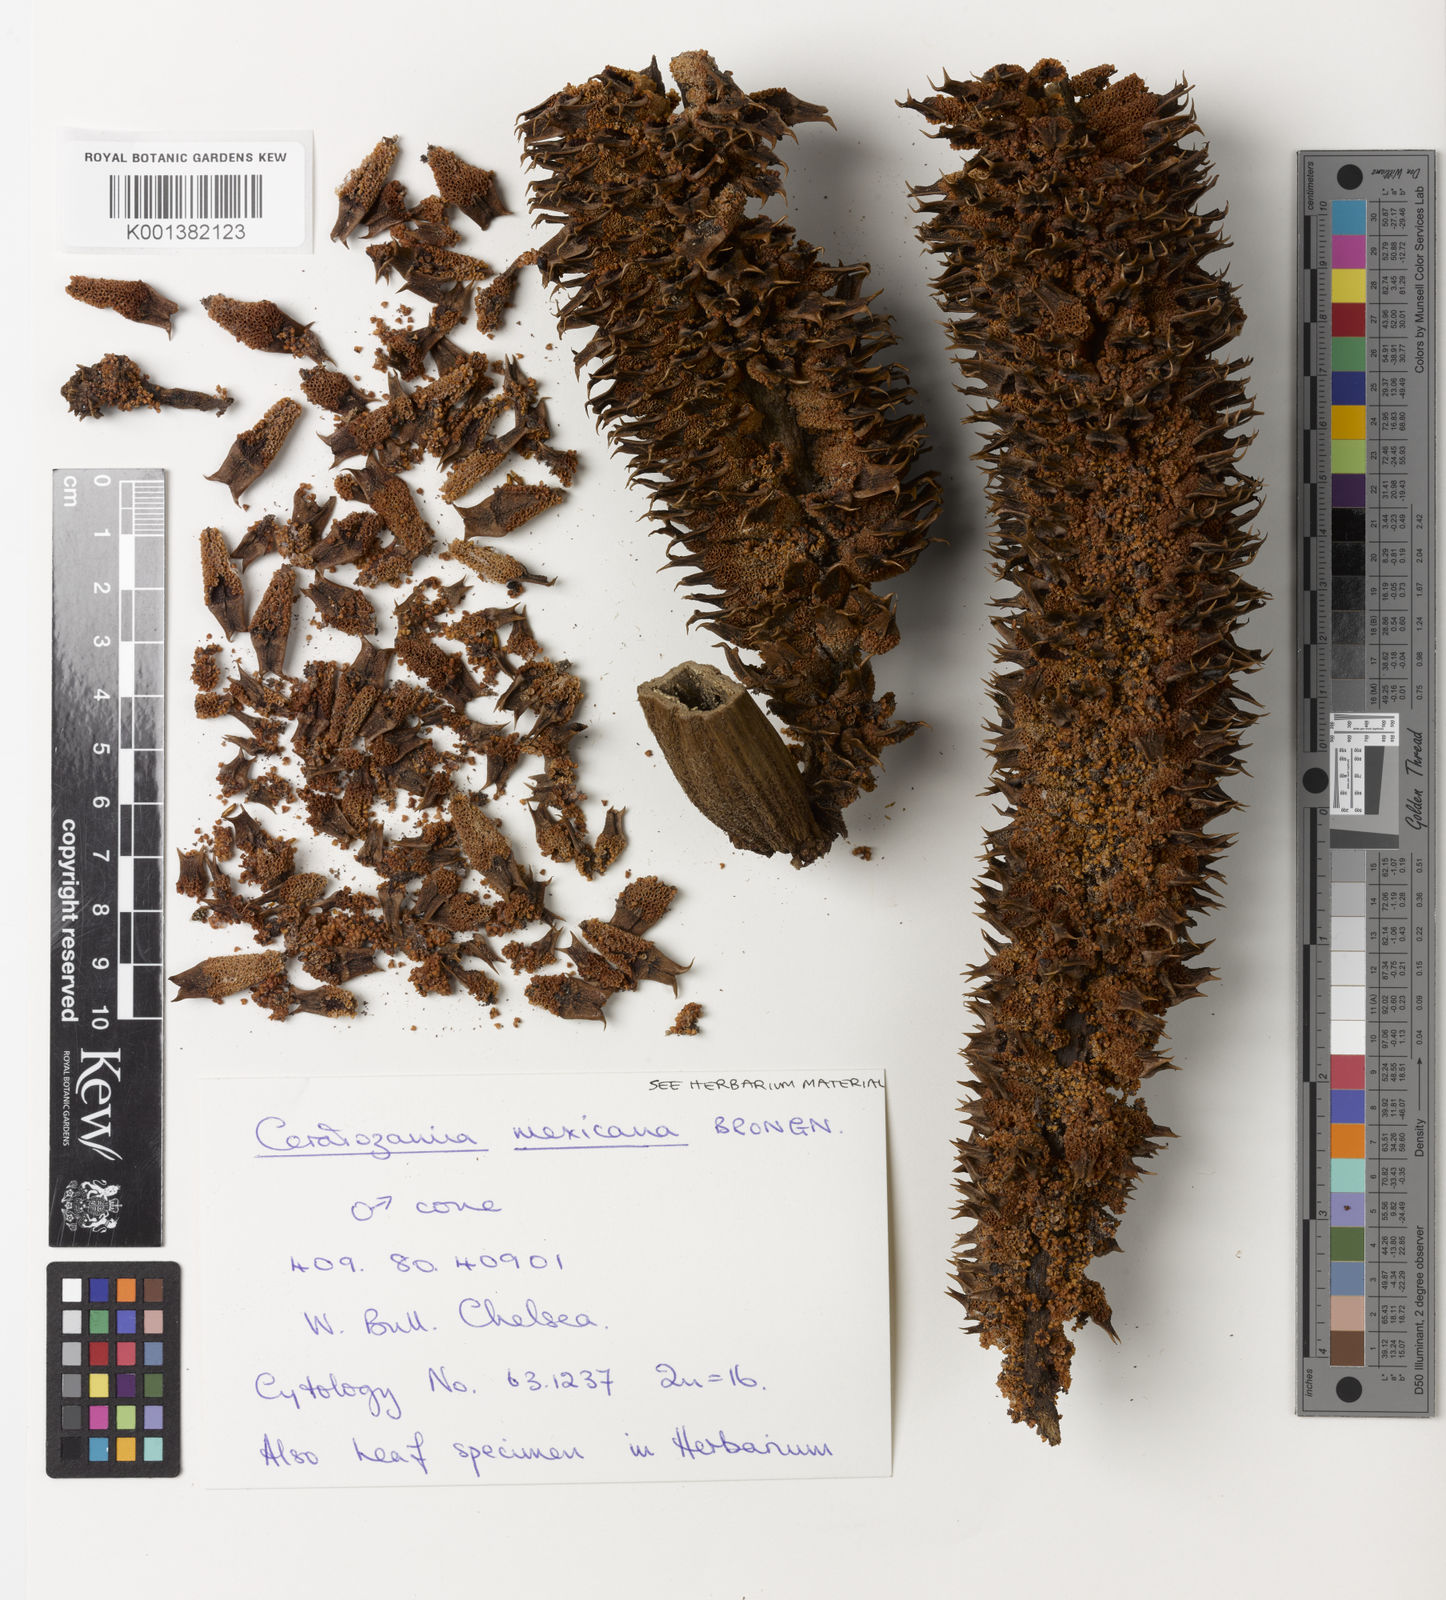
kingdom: Plantae
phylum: Tracheophyta
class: Cycadopsida
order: Cycadales
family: Zamiaceae
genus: Ceratozamia
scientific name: Ceratozamia mexicana
